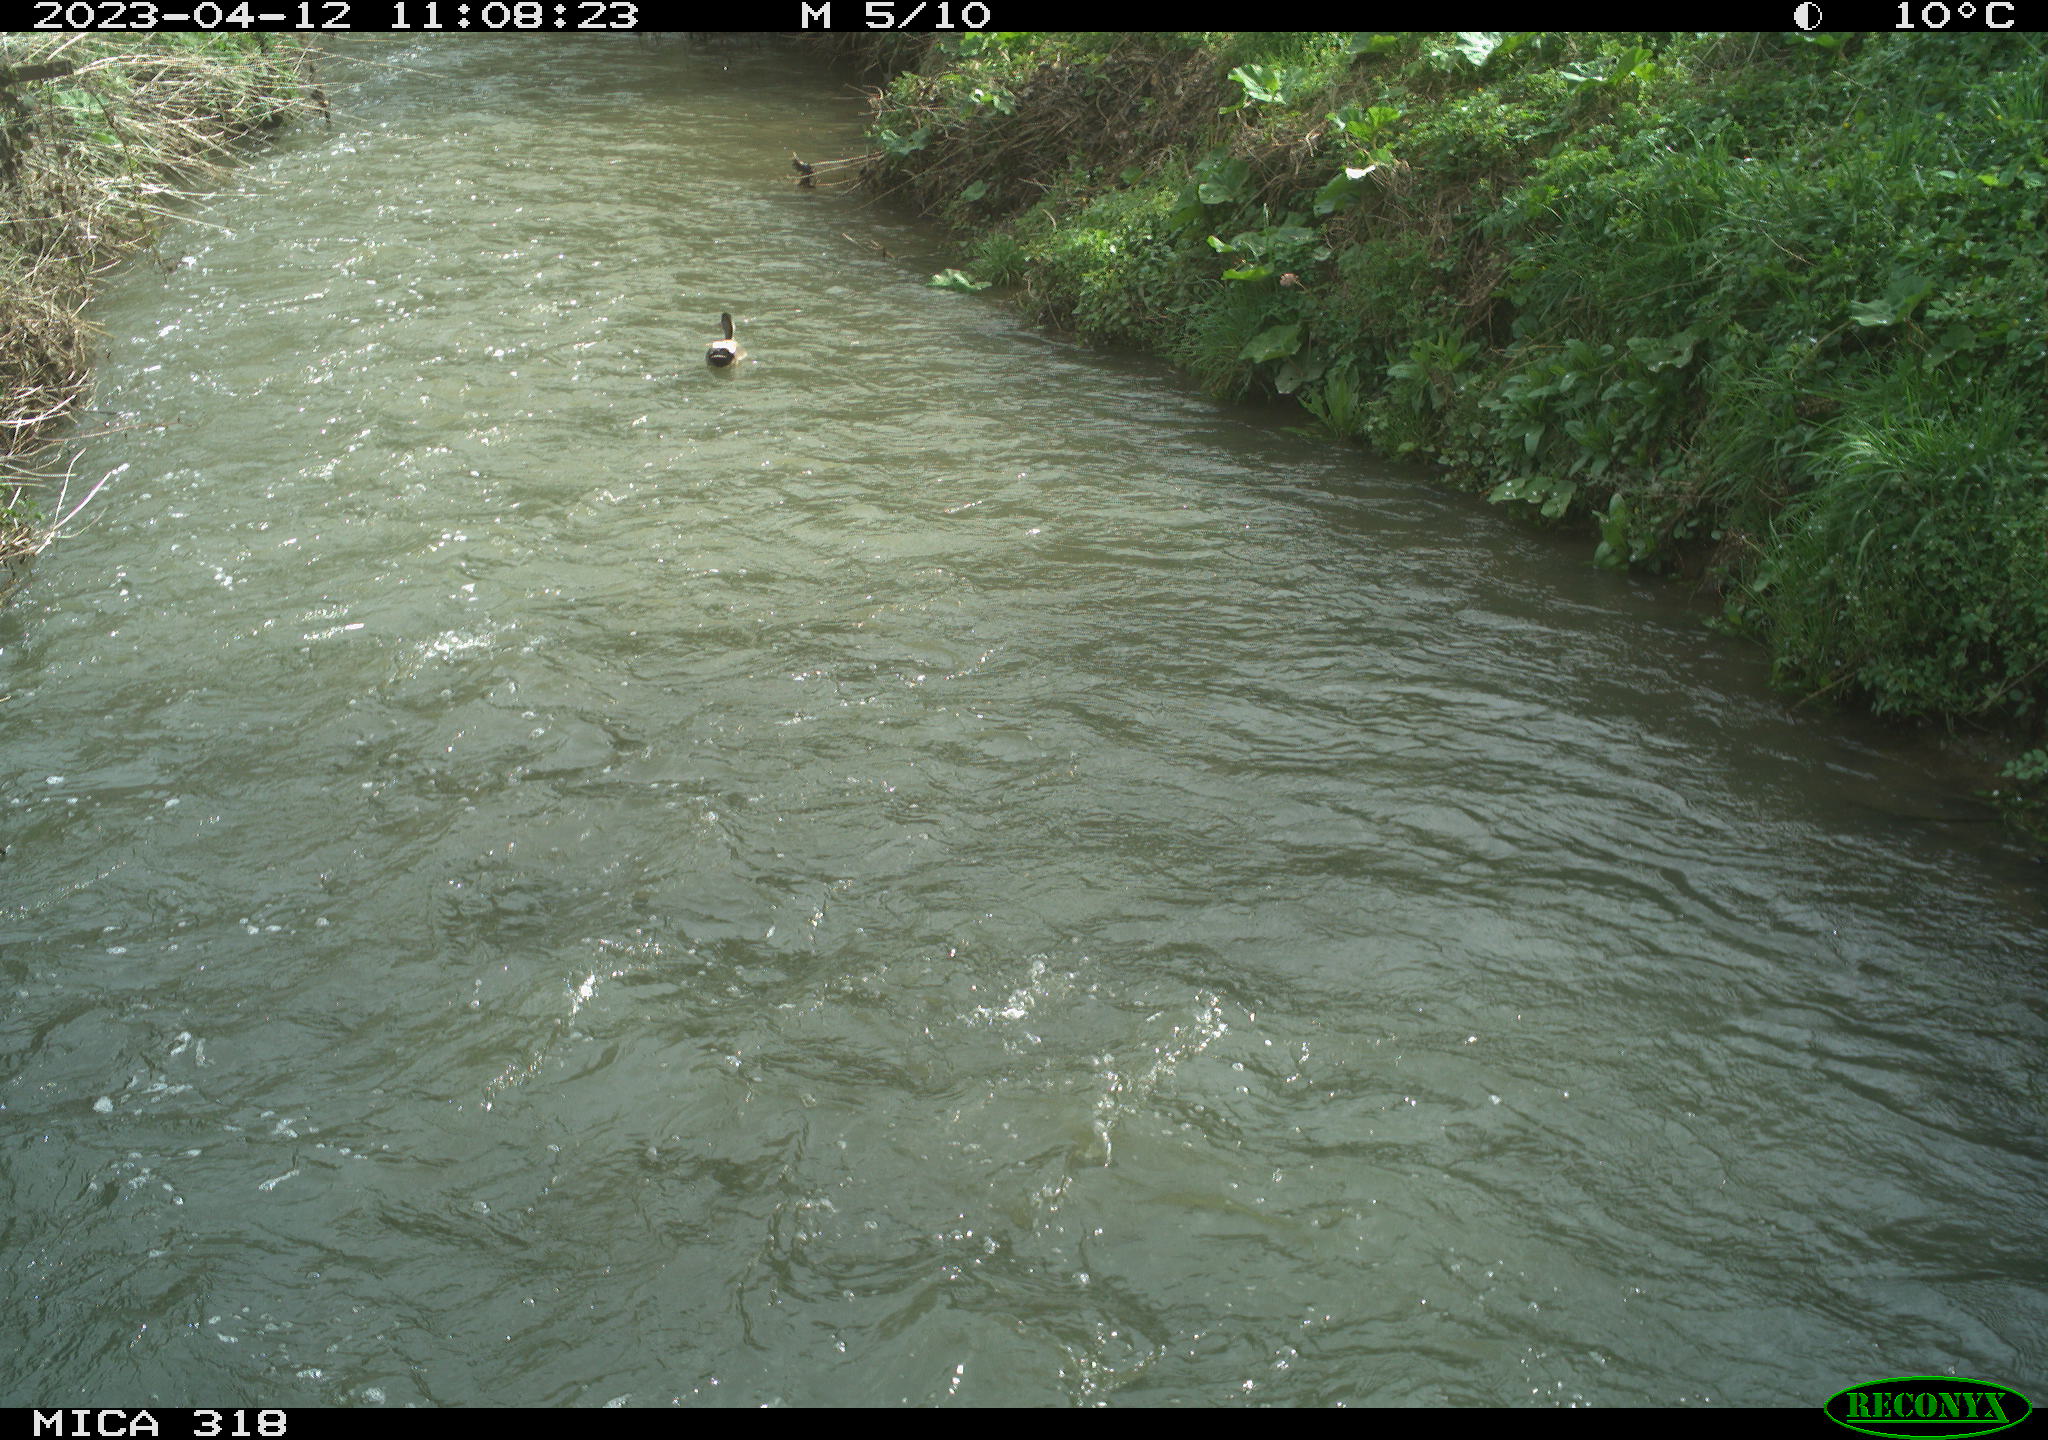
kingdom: Animalia
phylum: Chordata
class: Aves
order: Gruiformes
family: Rallidae
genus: Gallinula
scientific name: Gallinula chloropus
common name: Common moorhen
